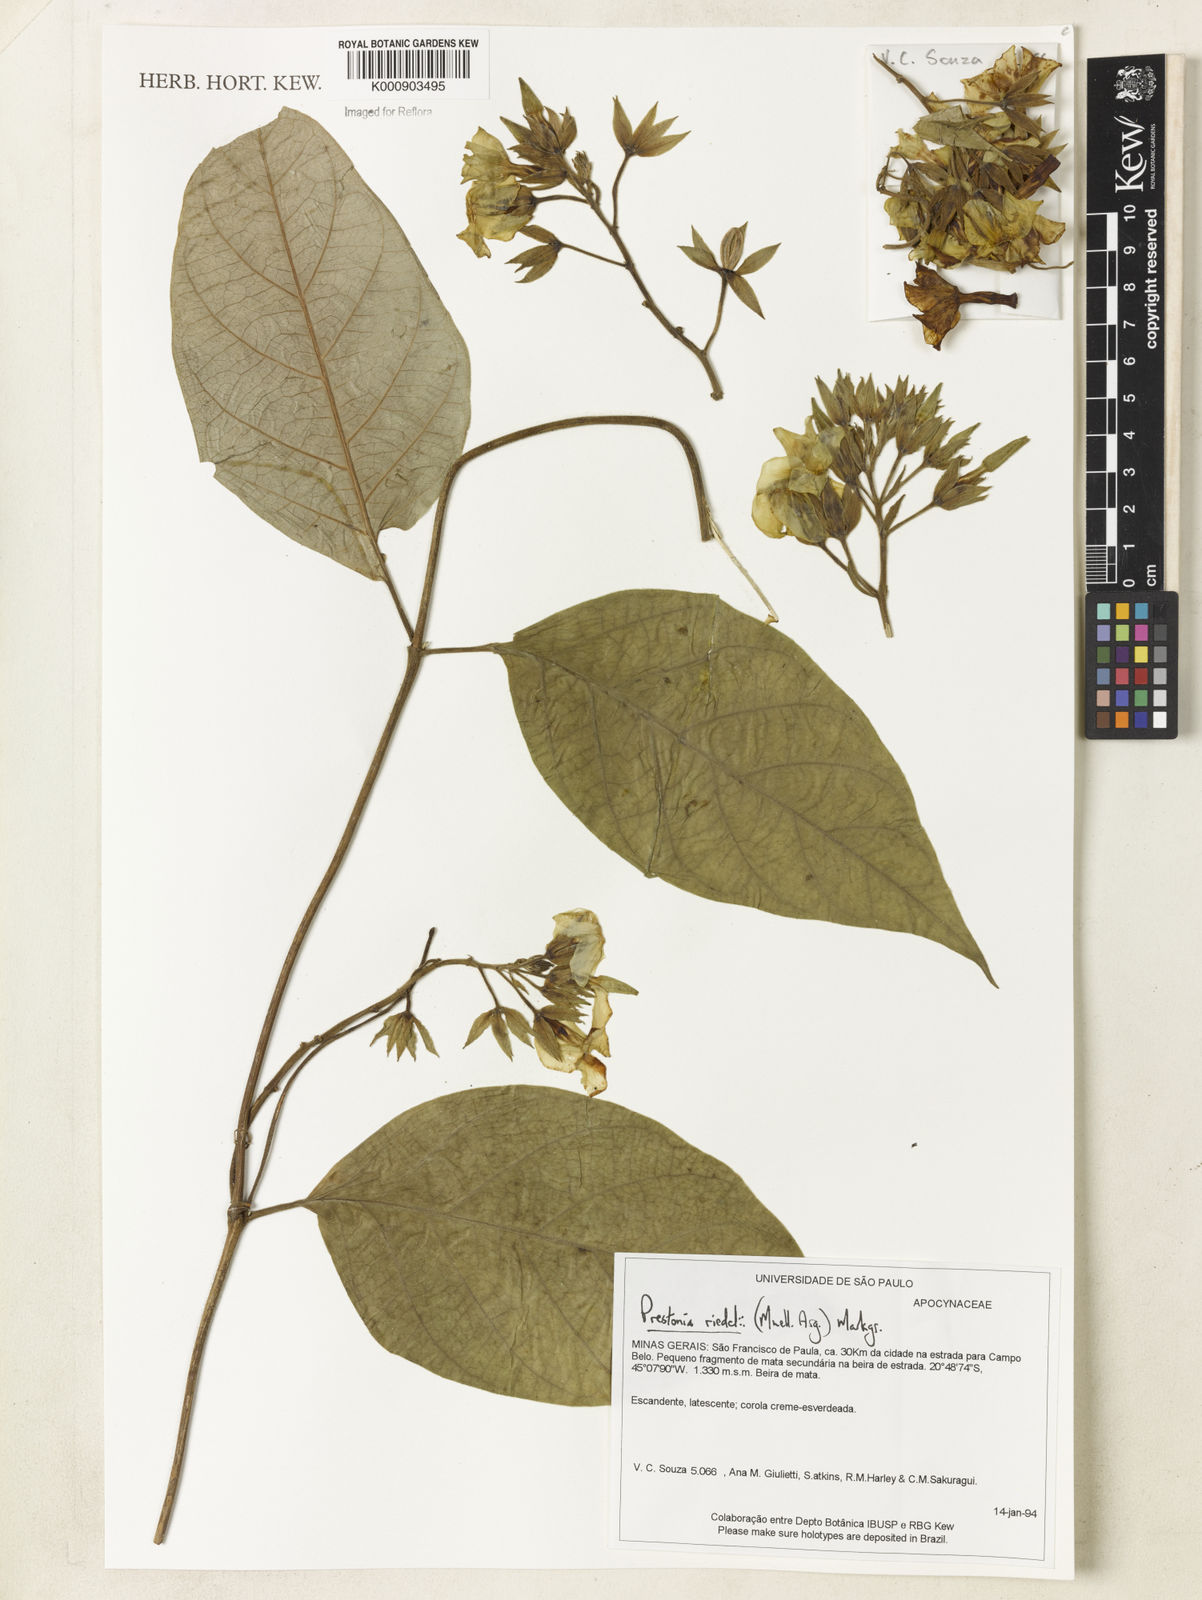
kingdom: Plantae
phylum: Tracheophyta
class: Magnoliopsida
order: Gentianales
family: Apocynaceae
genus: Prestonia
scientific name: Prestonia
